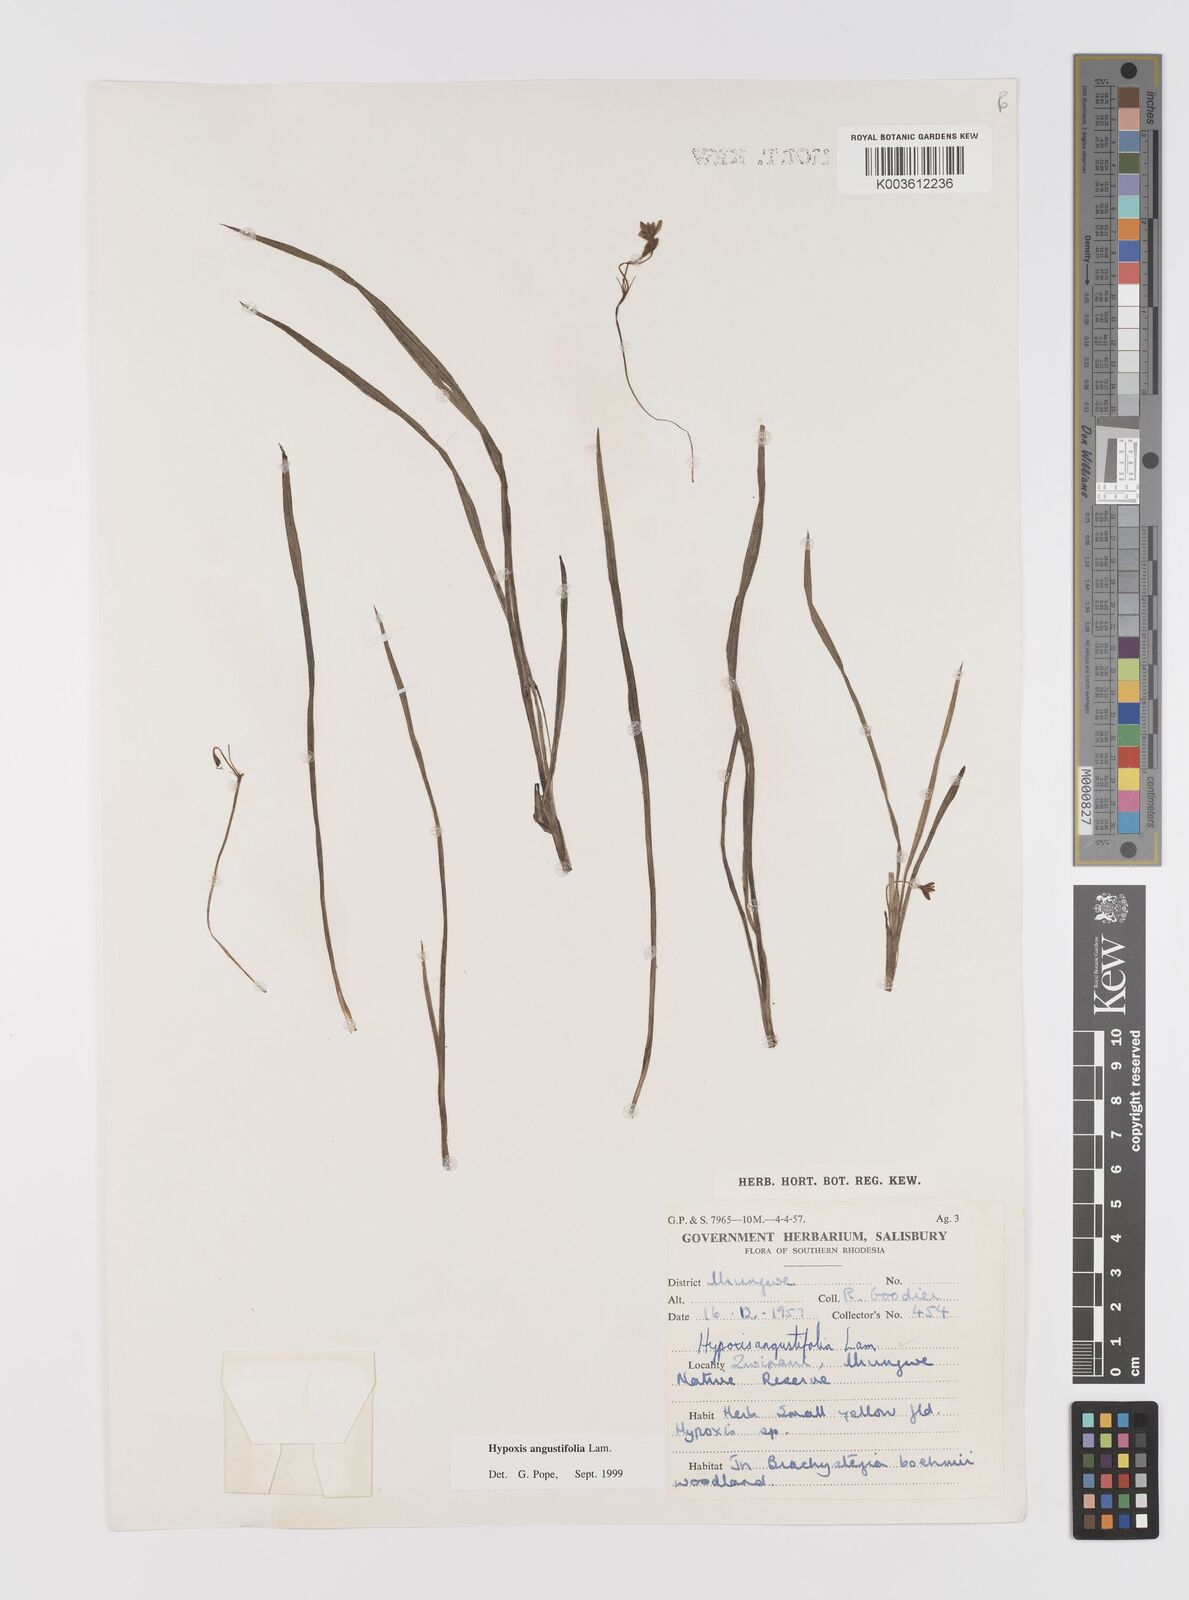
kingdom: Plantae
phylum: Tracheophyta
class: Liliopsida
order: Asparagales
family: Hypoxidaceae
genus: Hypoxis
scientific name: Hypoxis angustifolia
